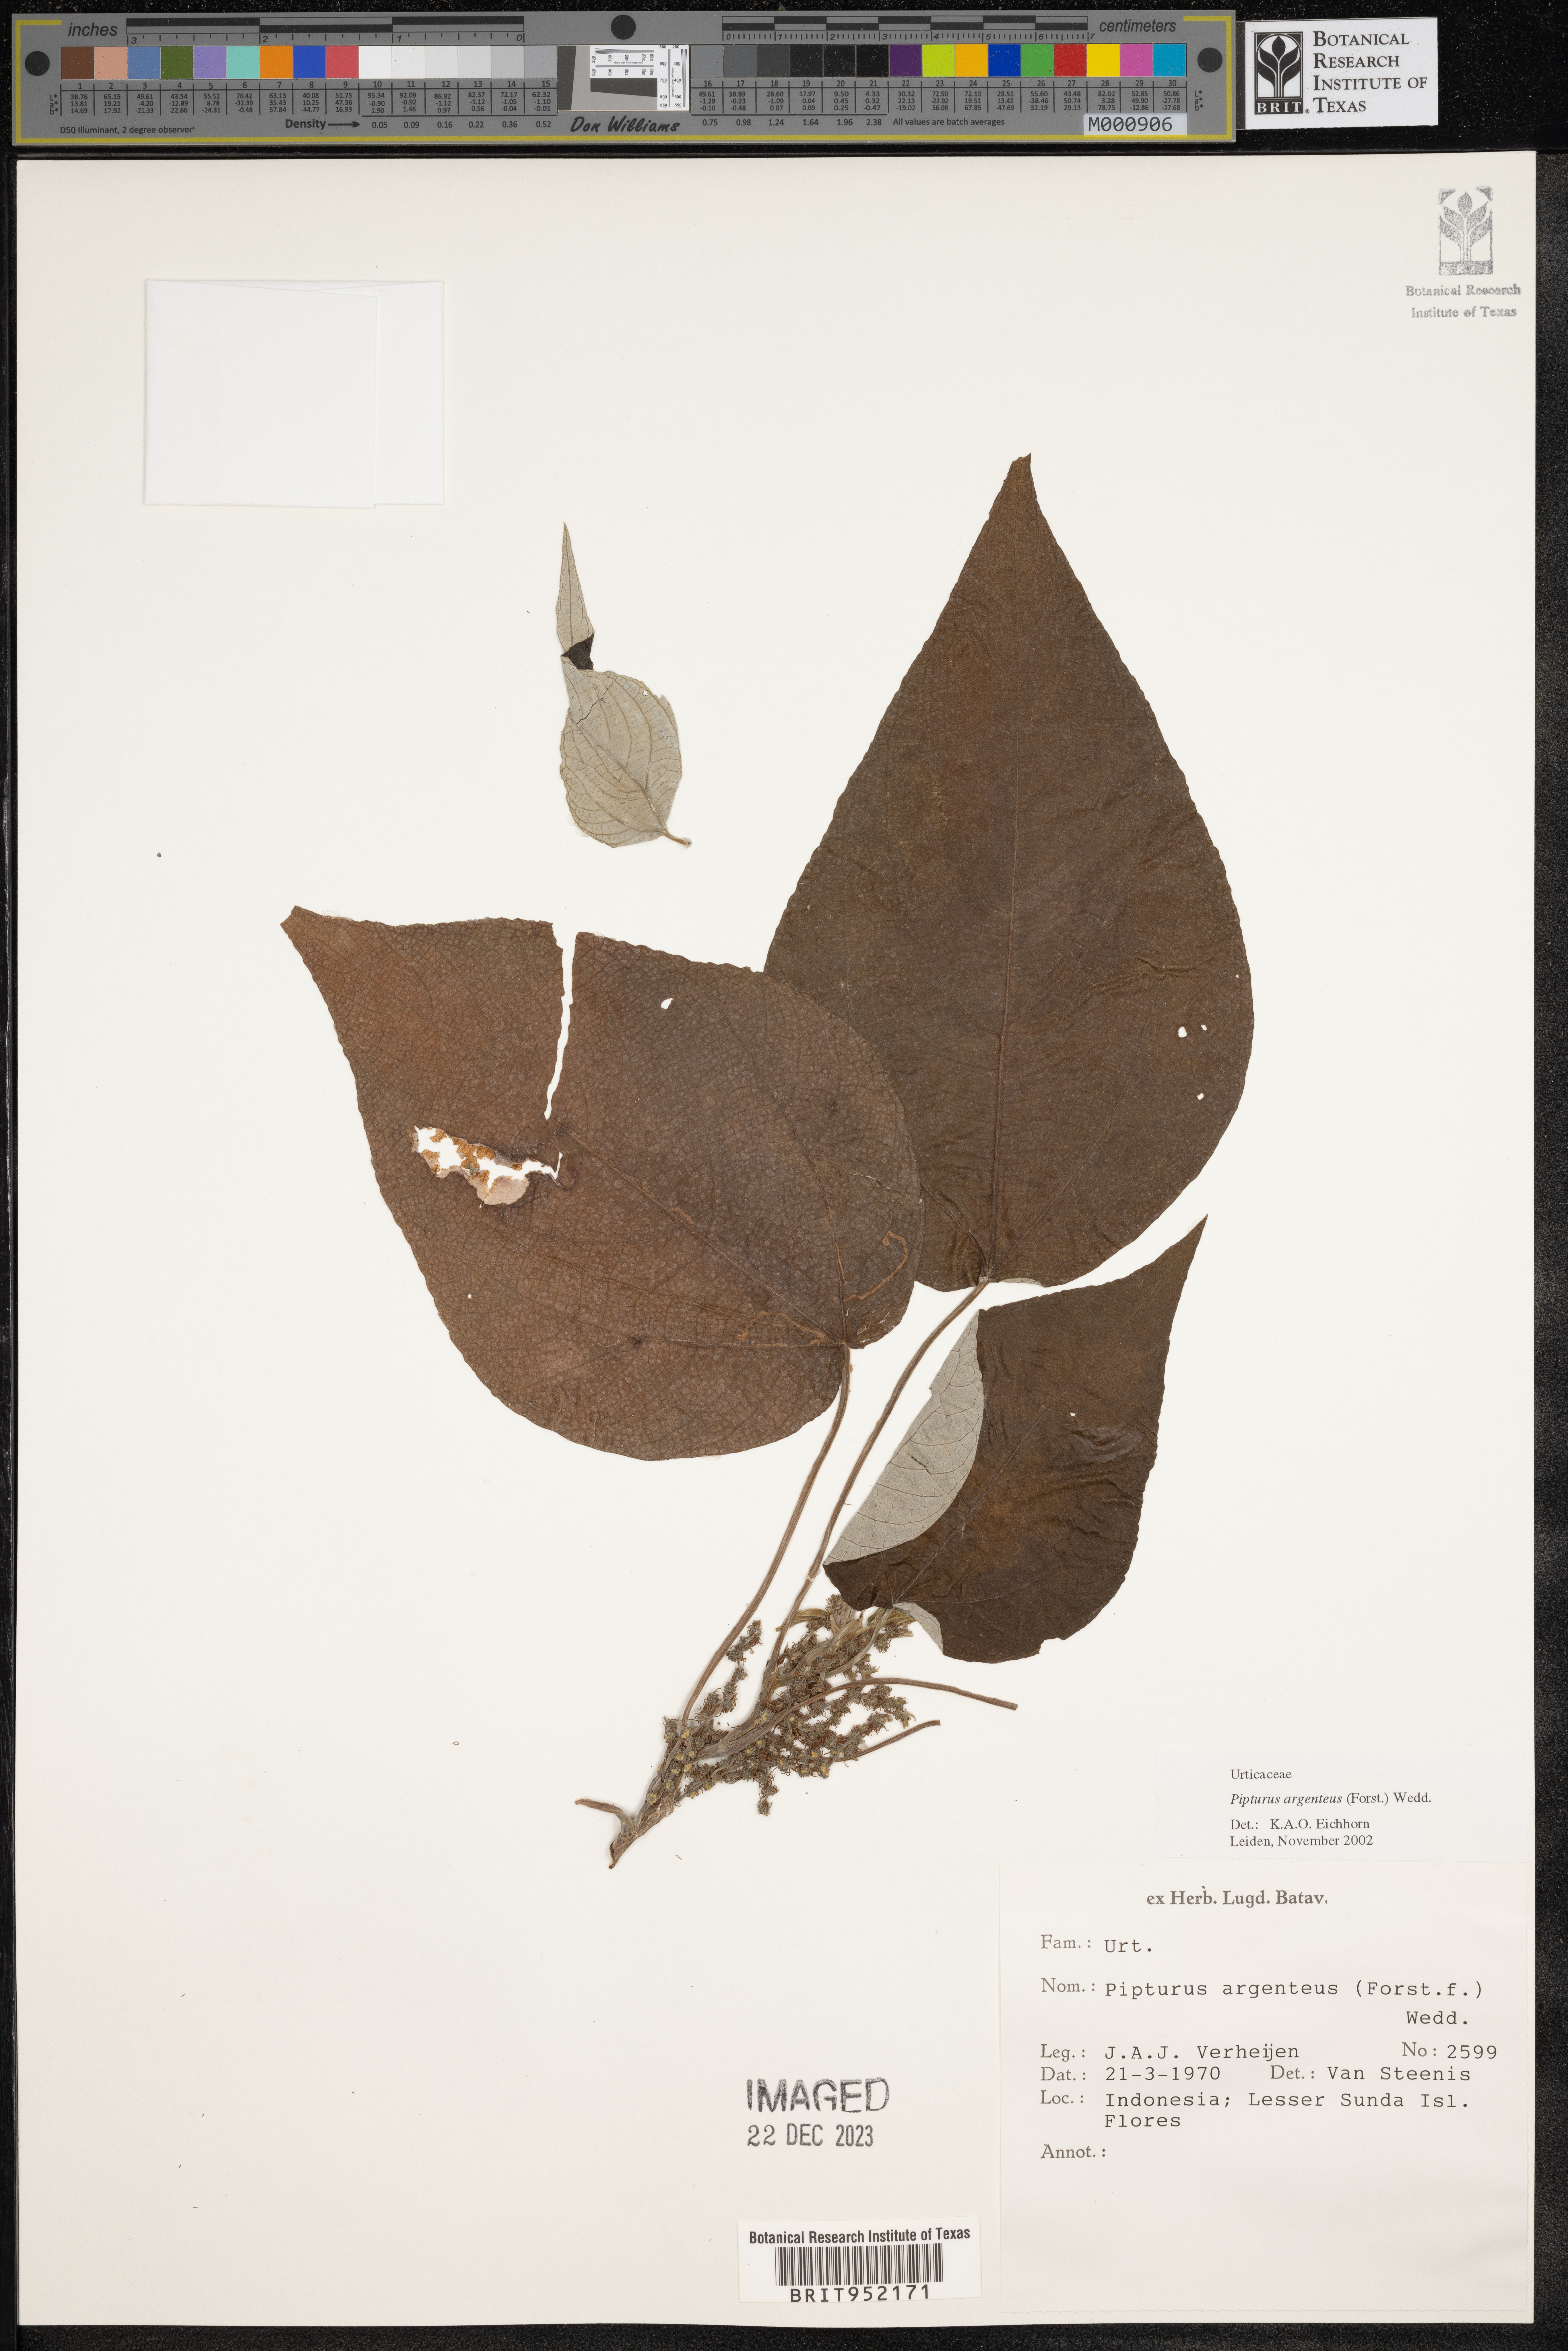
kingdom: Plantae
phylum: Tracheophyta
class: Magnoliopsida
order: Rosales
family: Urticaceae
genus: Pipturus
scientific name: Pipturus argenteus
